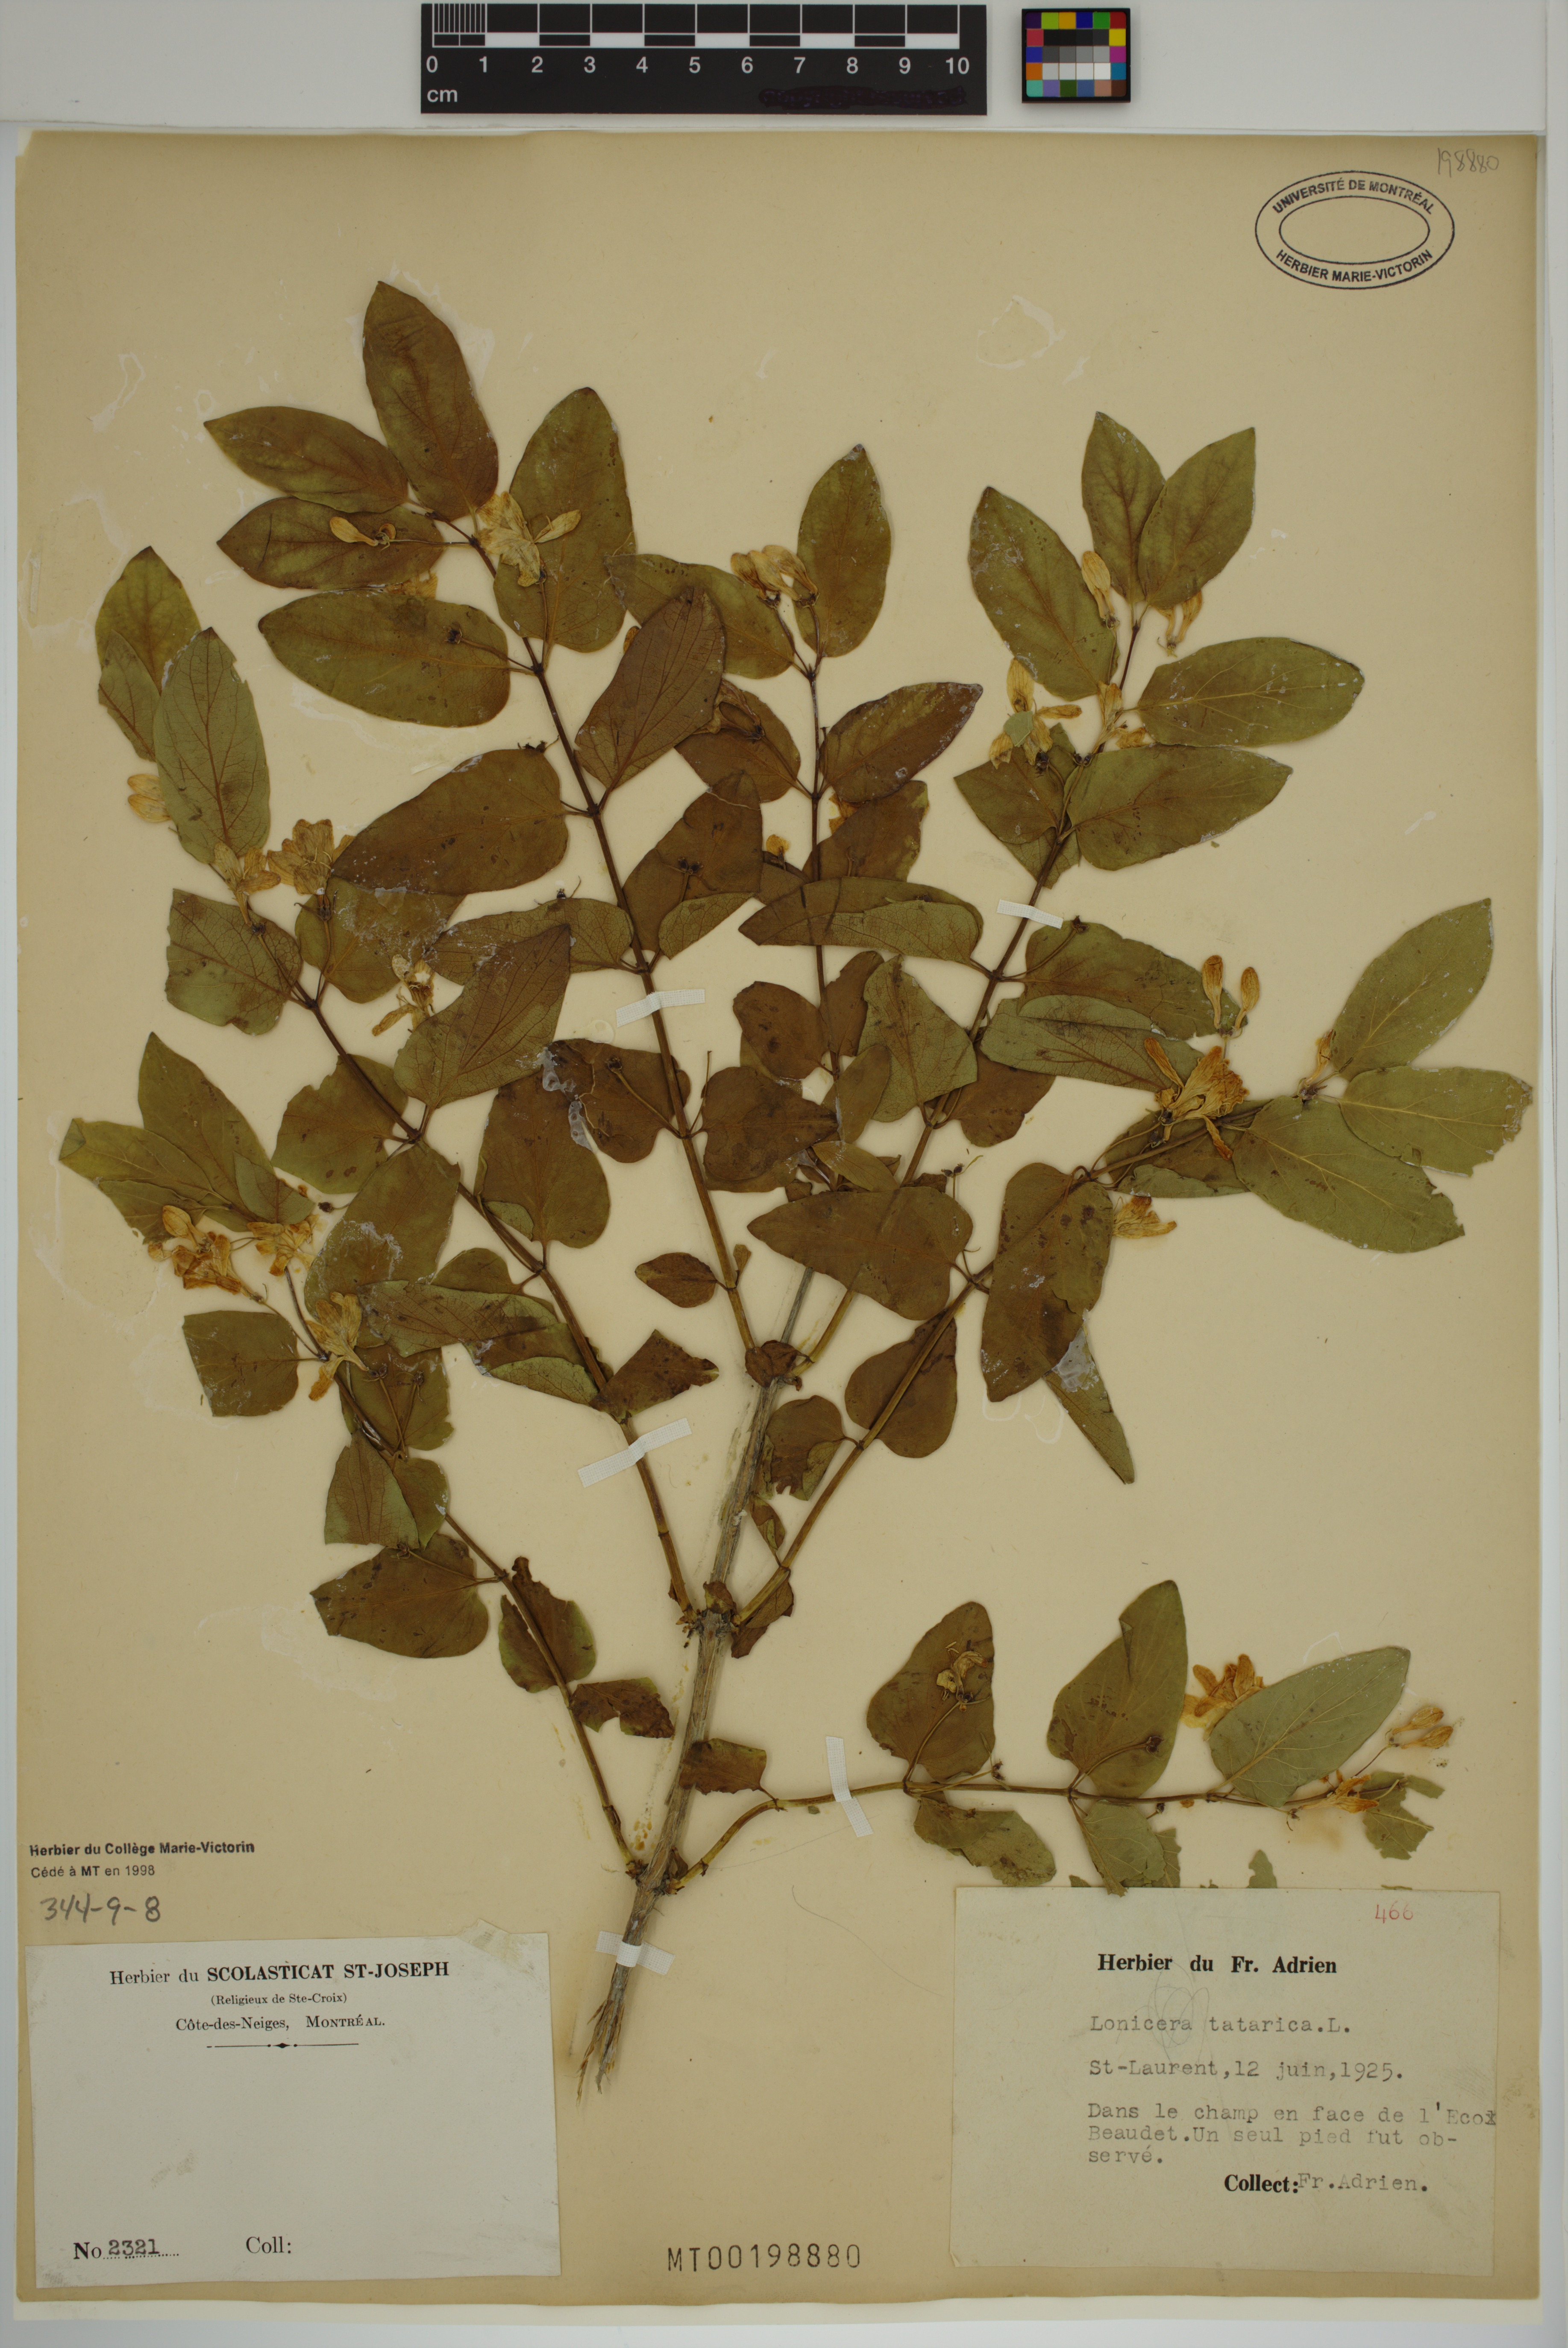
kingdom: Plantae
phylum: Tracheophyta
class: Magnoliopsida
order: Dipsacales
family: Caprifoliaceae
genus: Lonicera
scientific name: Lonicera tatarica
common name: Tatarian honeysuckle
